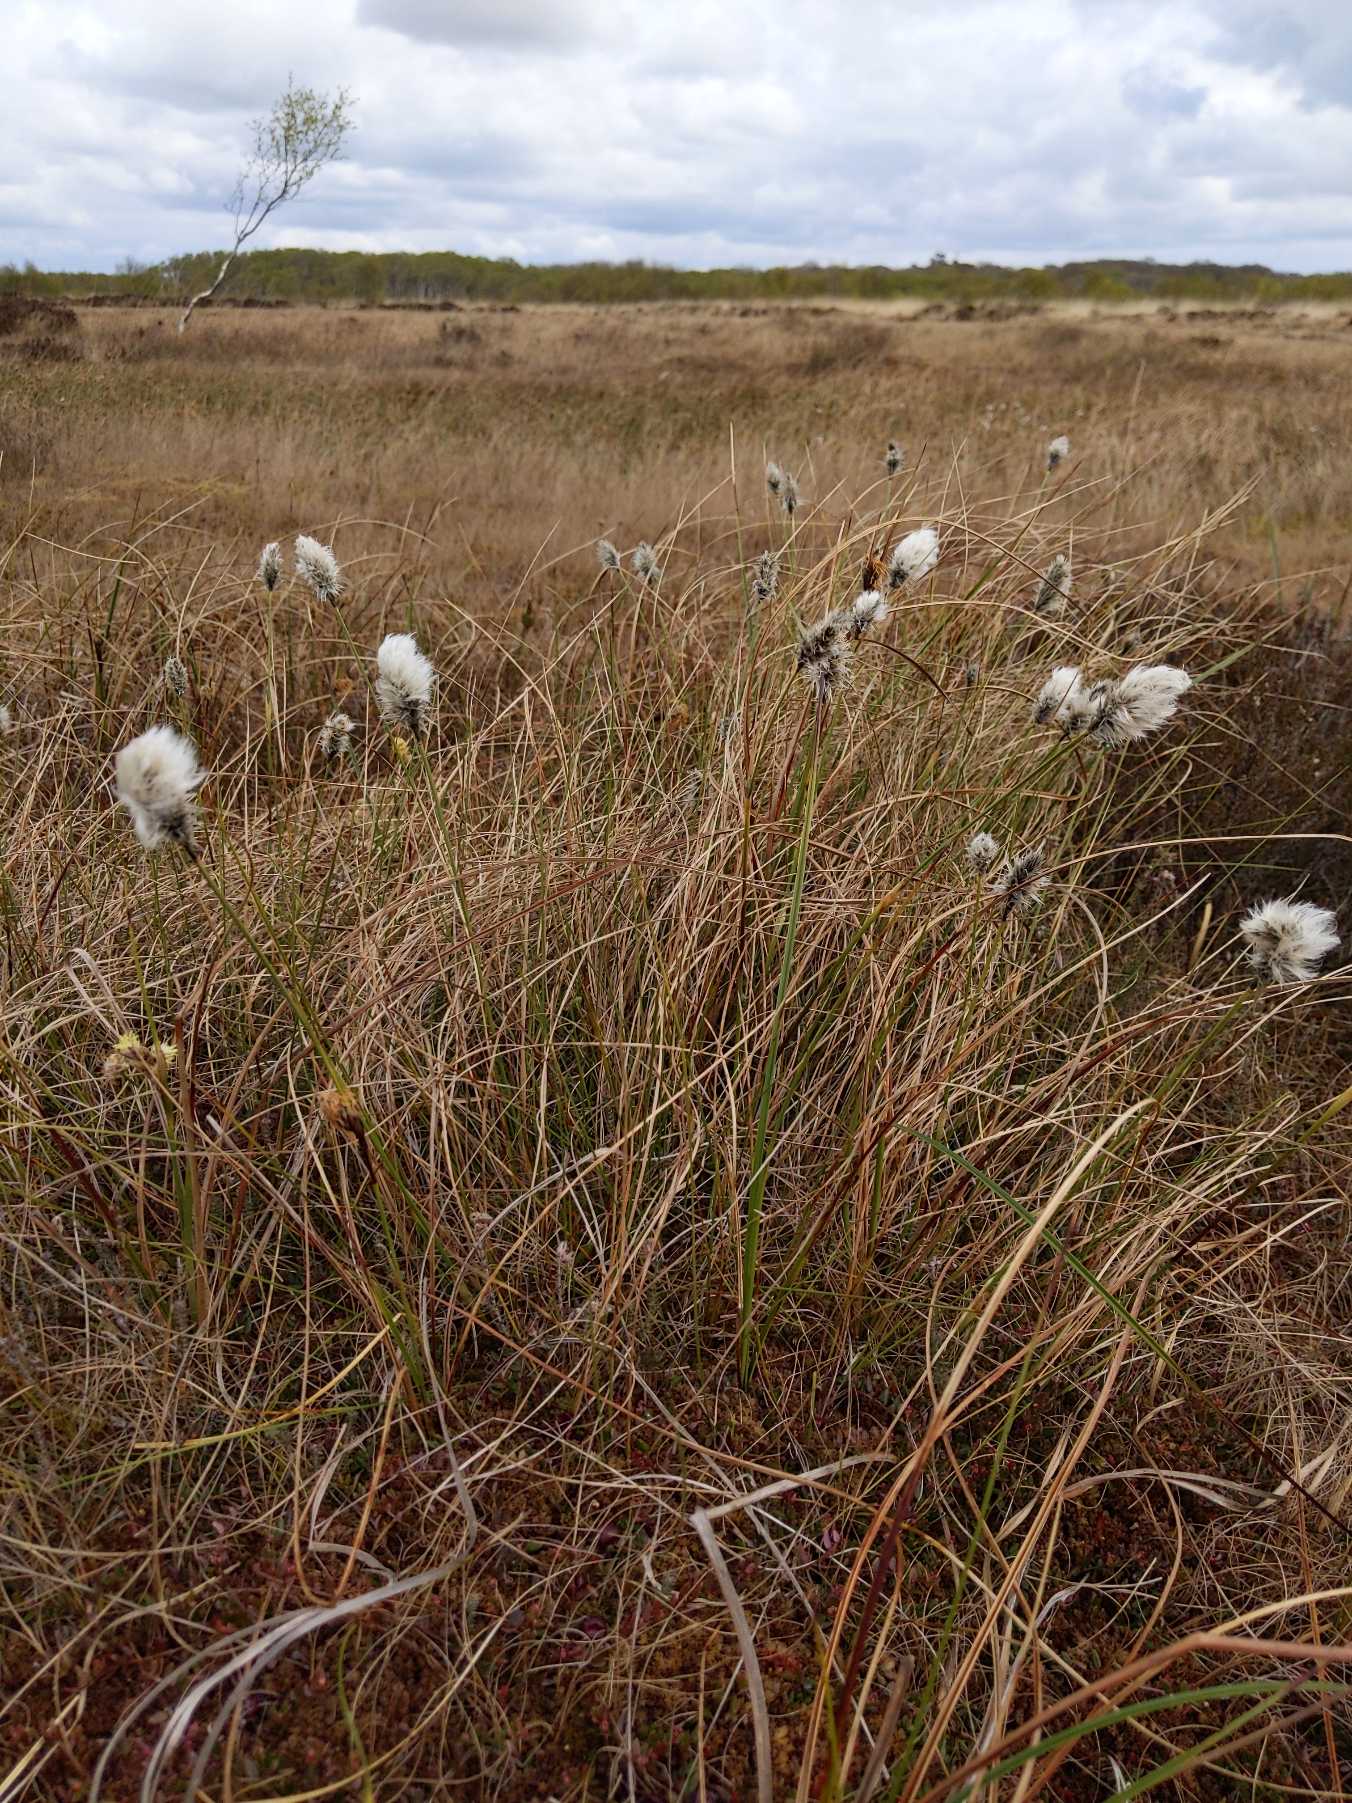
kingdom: Plantae
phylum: Tracheophyta
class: Liliopsida
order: Poales
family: Cyperaceae
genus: Eriophorum
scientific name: Eriophorum vaginatum
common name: Tue-kæruld
